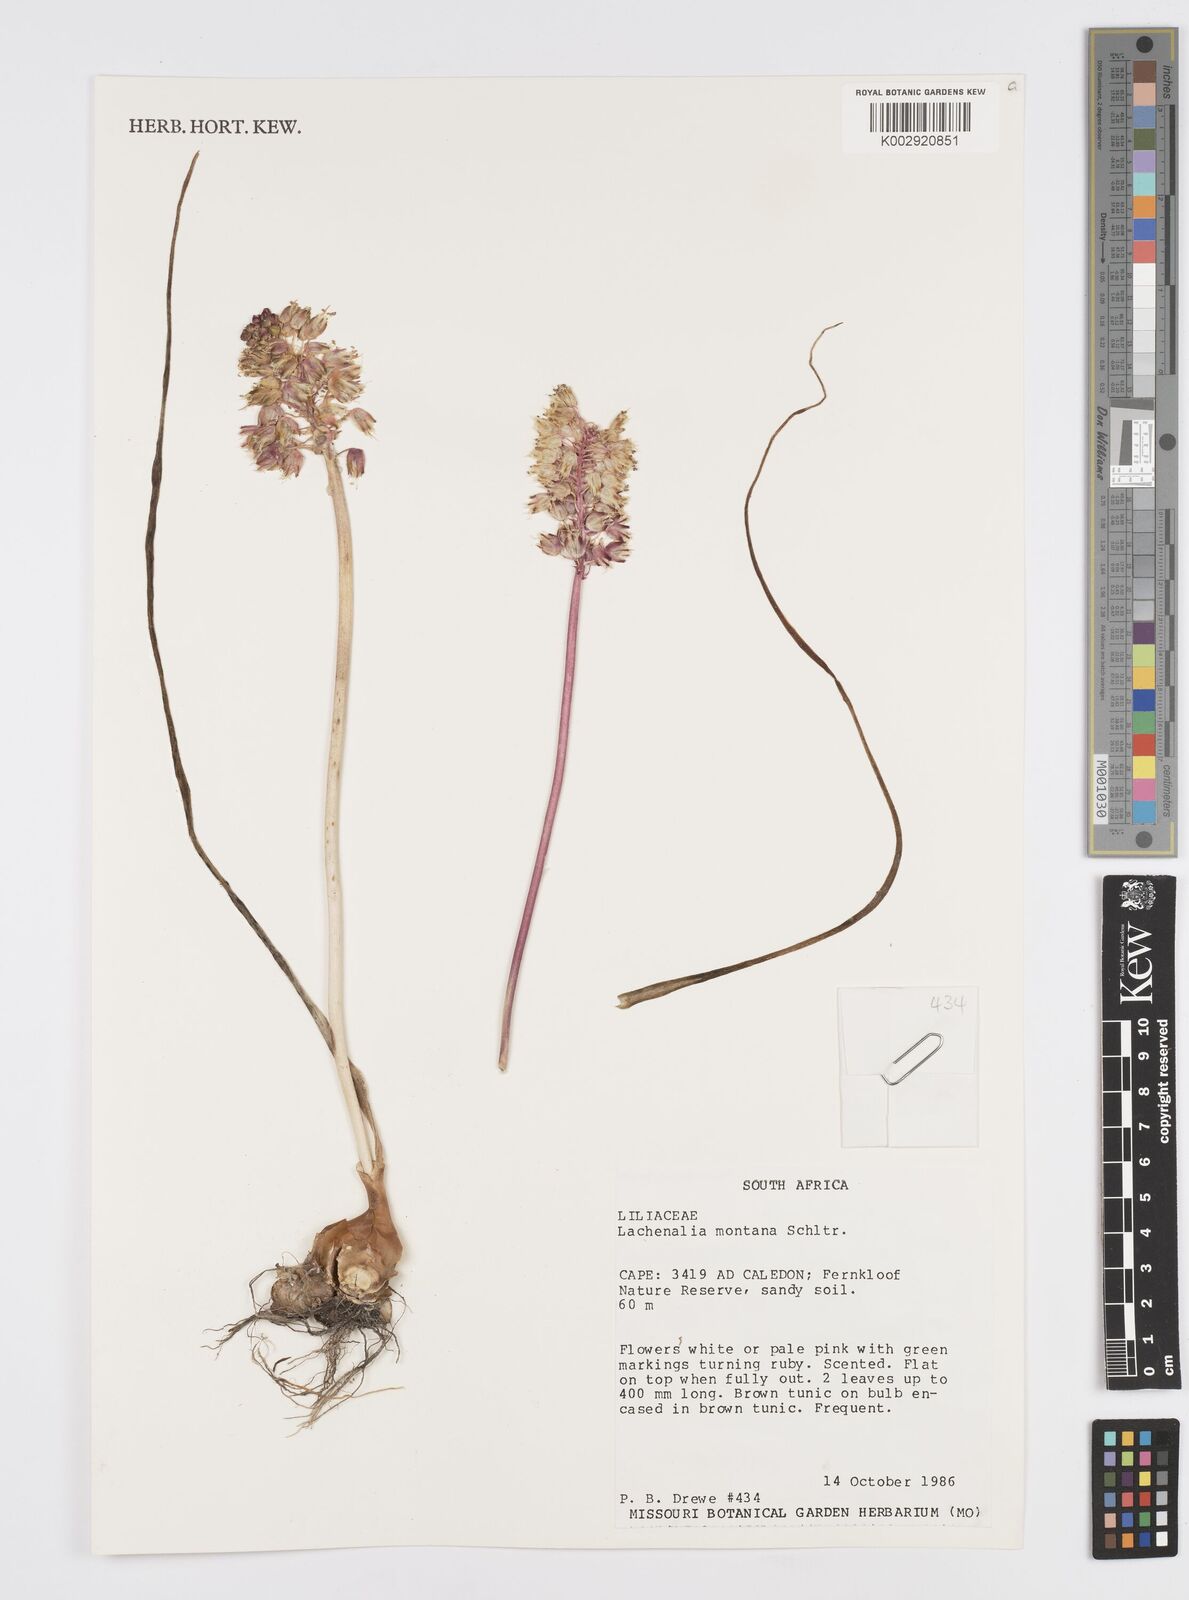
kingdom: Plantae
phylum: Tracheophyta
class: Liliopsida
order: Asparagales
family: Asparagaceae
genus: Lachenalia
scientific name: Lachenalia montana
